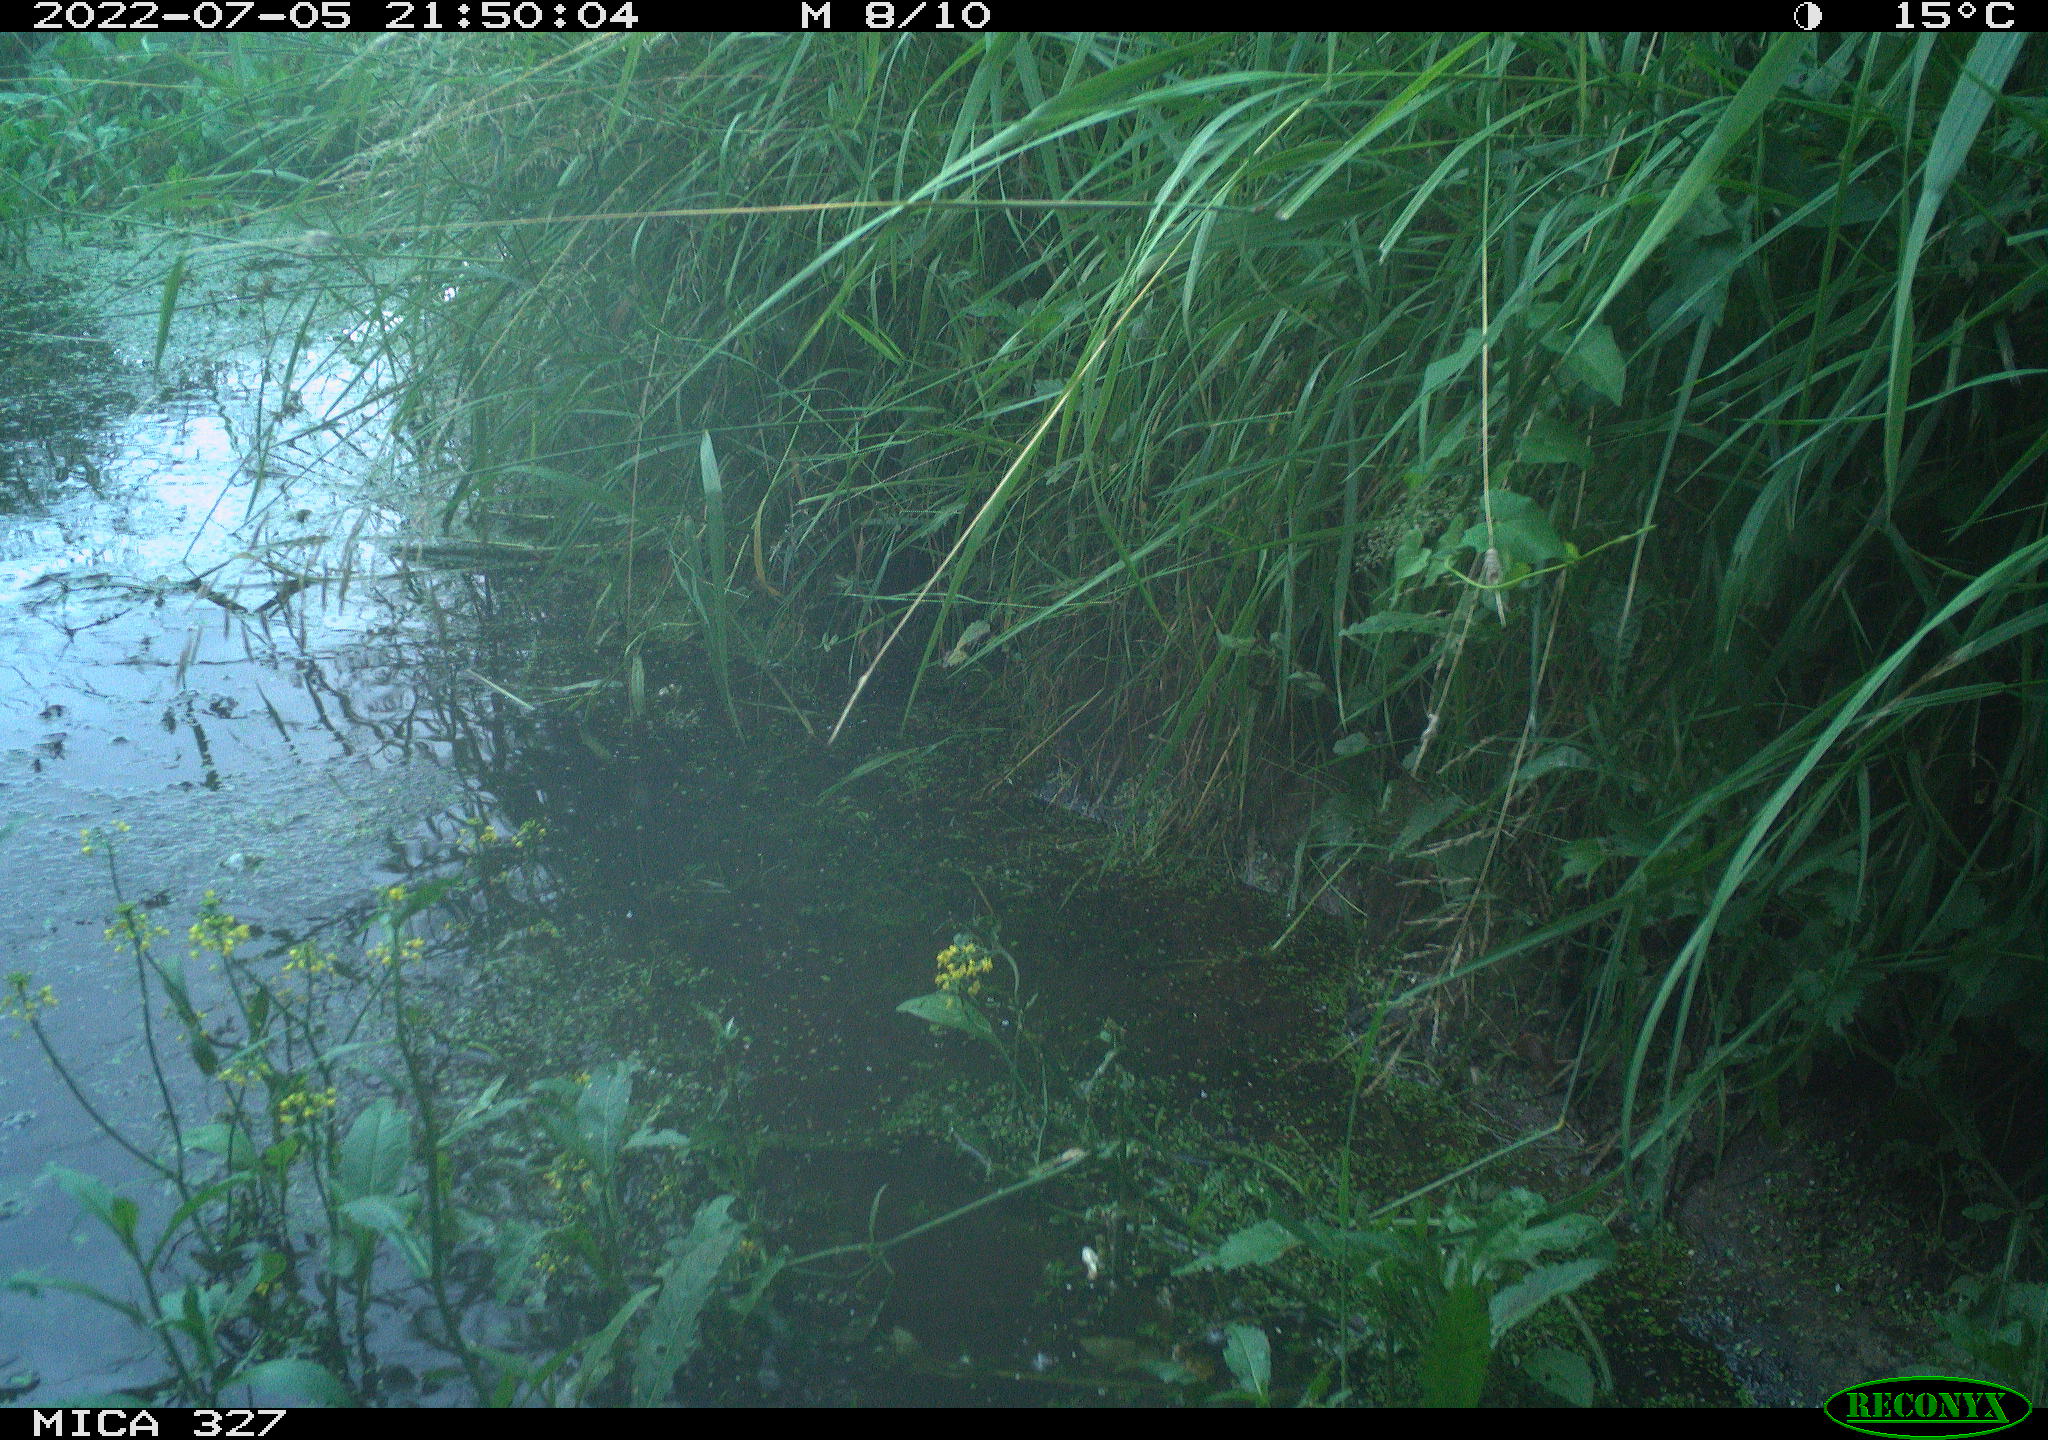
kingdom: Animalia
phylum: Chordata
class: Mammalia
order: Rodentia
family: Cricetidae
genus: Ondatra
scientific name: Ondatra zibethicus
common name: Muskrat
